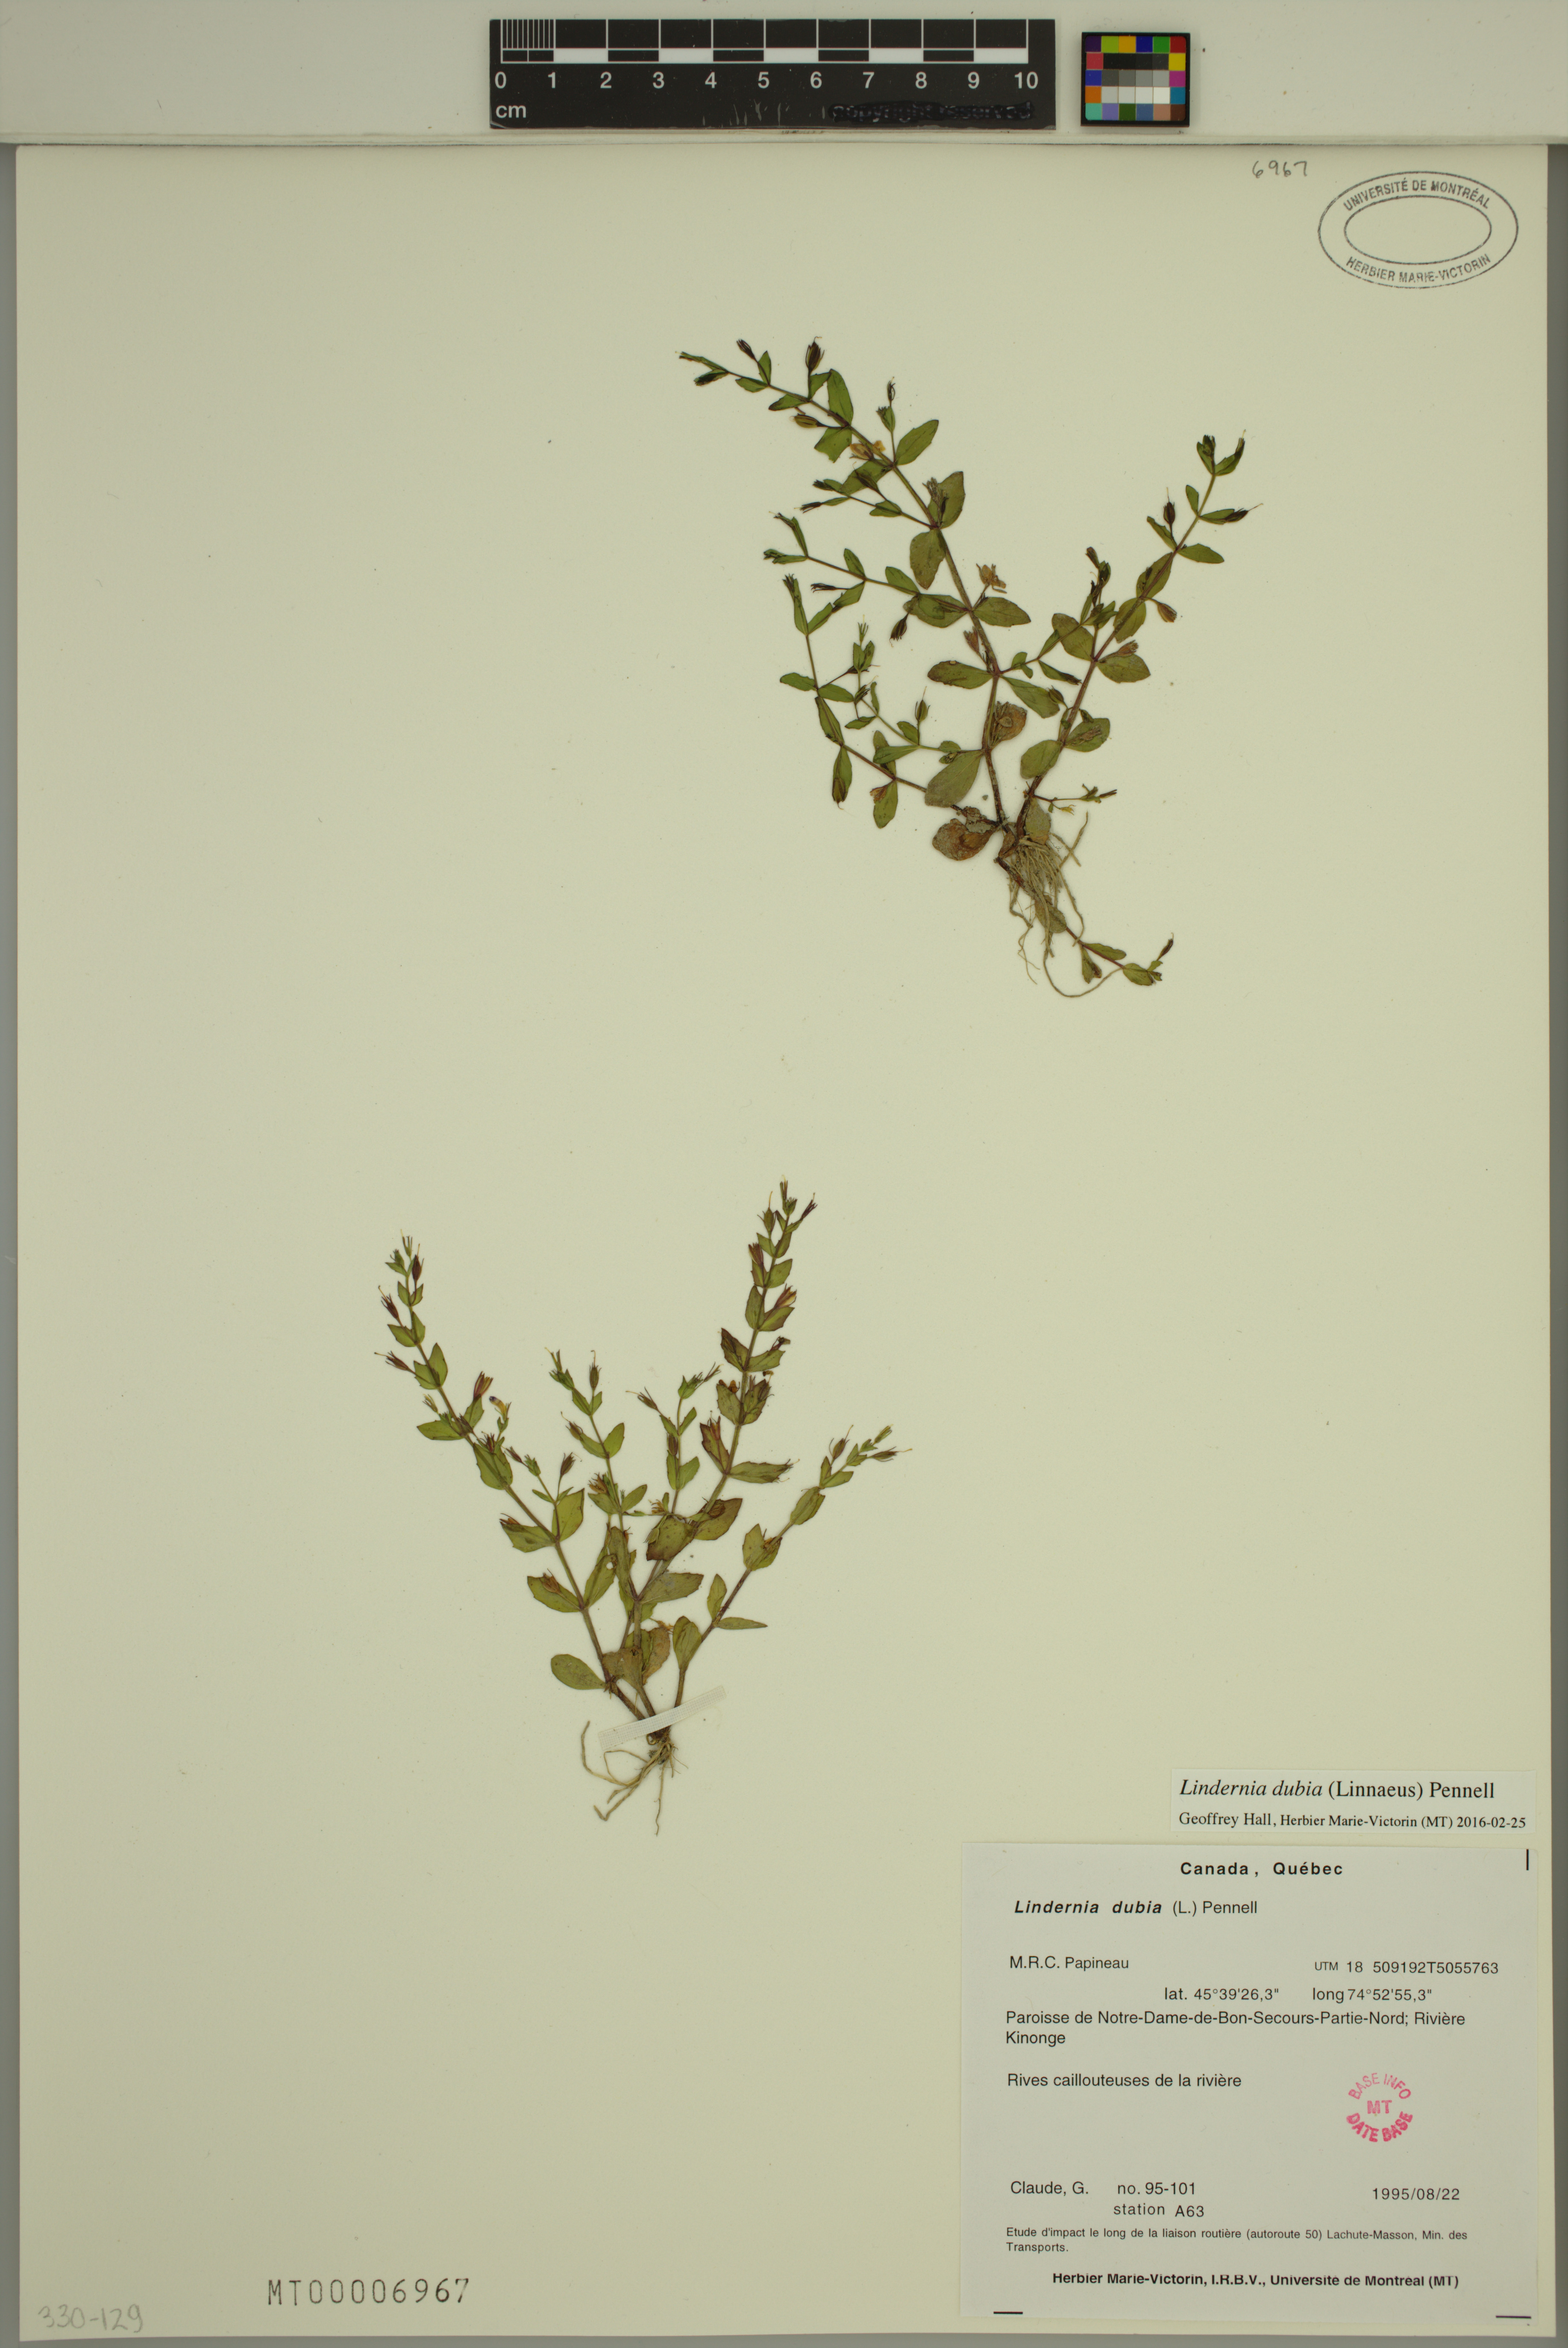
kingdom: Plantae
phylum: Tracheophyta
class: Magnoliopsida
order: Lamiales
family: Linderniaceae
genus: Lindernia
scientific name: Lindernia dubia
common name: Annual false pimpernel
